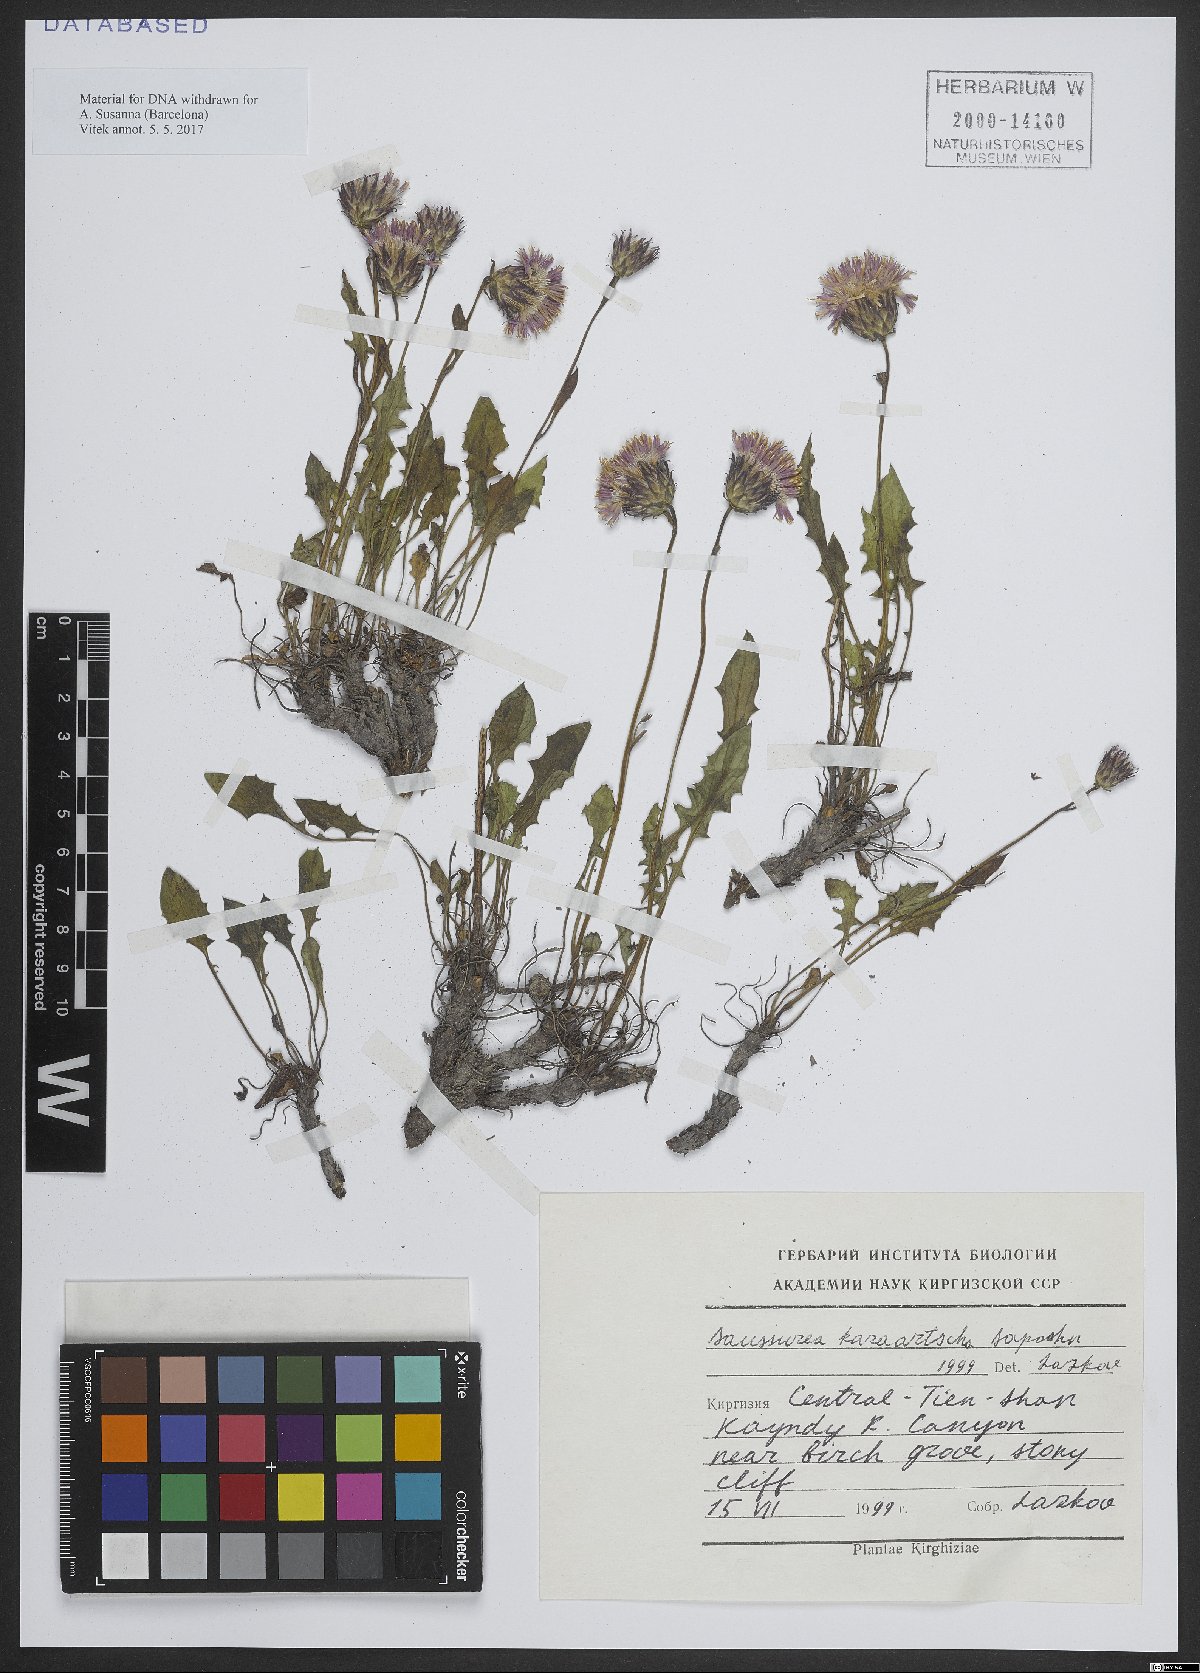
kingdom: Plantae
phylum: Tracheophyta
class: Magnoliopsida
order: Asterales
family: Asteraceae
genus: Saussurea
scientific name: Saussurea karaartscha
